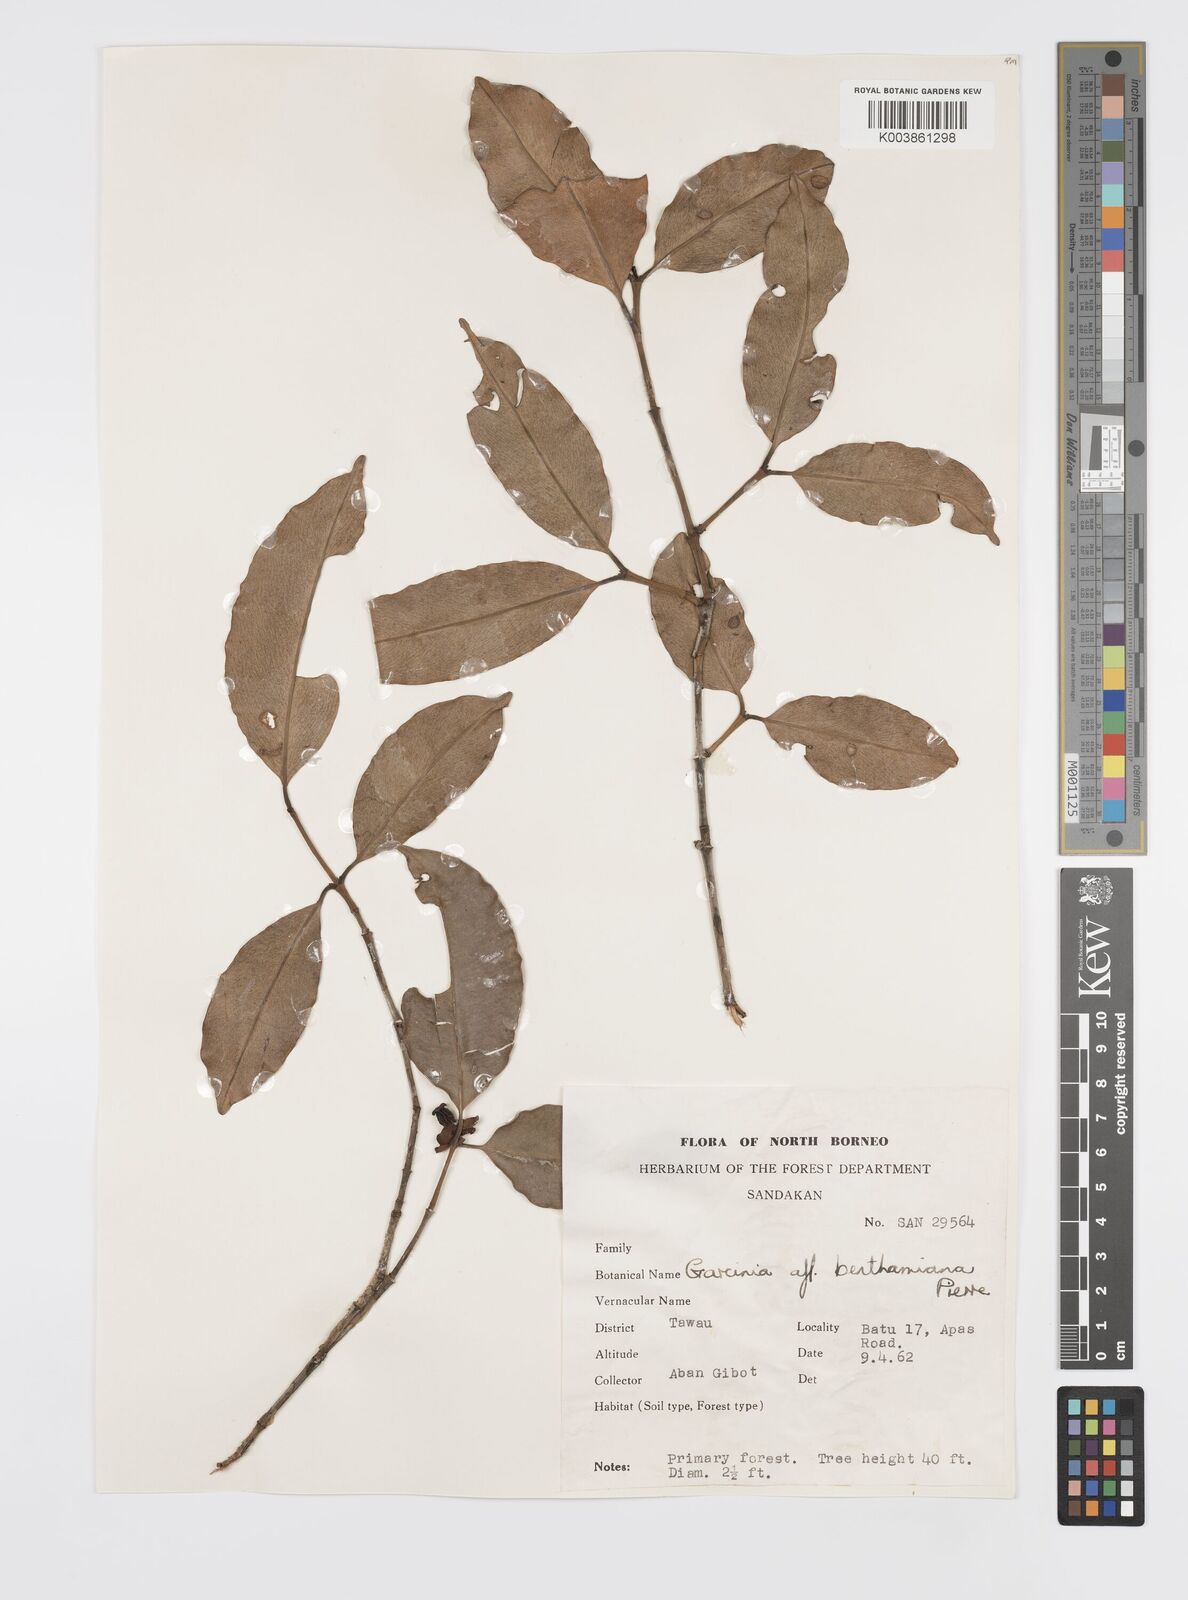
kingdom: Plantae
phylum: Tracheophyta
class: Magnoliopsida
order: Malpighiales
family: Clusiaceae
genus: Garcinia
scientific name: Garcinia sangudsangud
